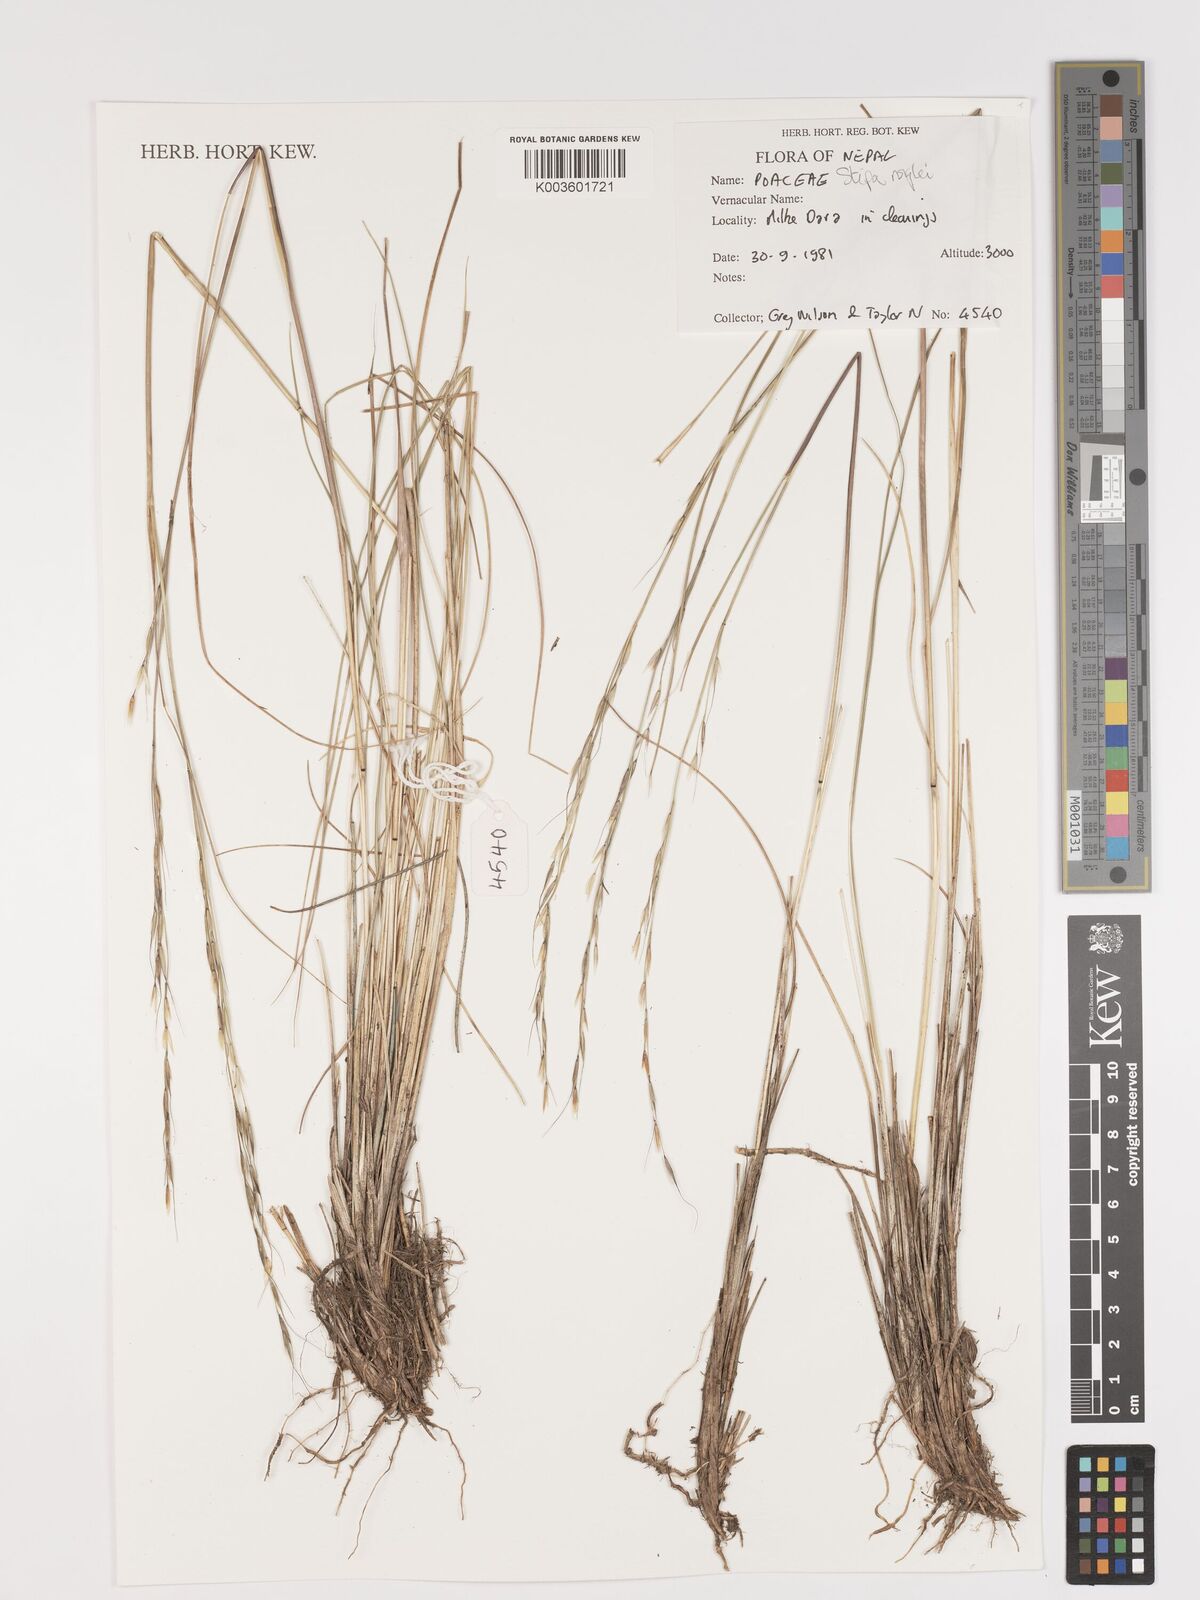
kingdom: Plantae
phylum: Tracheophyta
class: Liliopsida
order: Poales
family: Poaceae
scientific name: Poaceae
